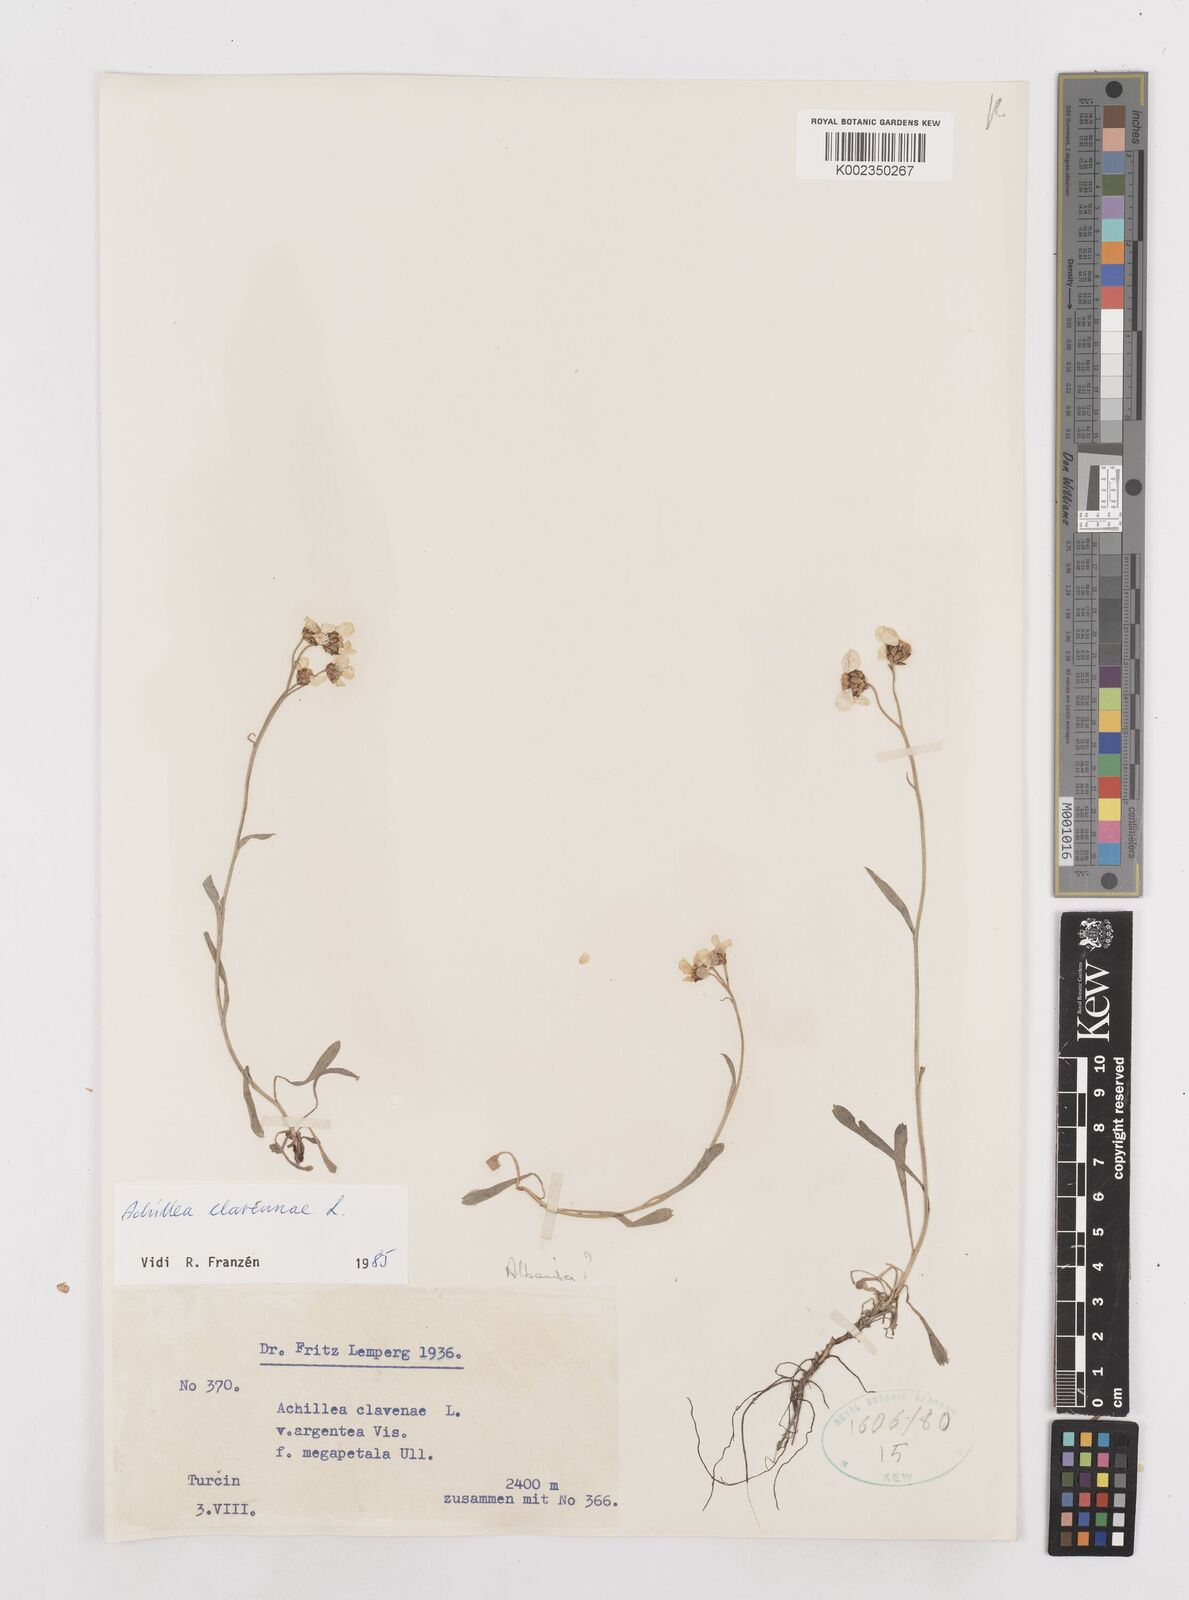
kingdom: Plantae
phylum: Tracheophyta
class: Magnoliopsida
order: Asterales
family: Asteraceae
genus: Achillea
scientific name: Achillea clavennae
